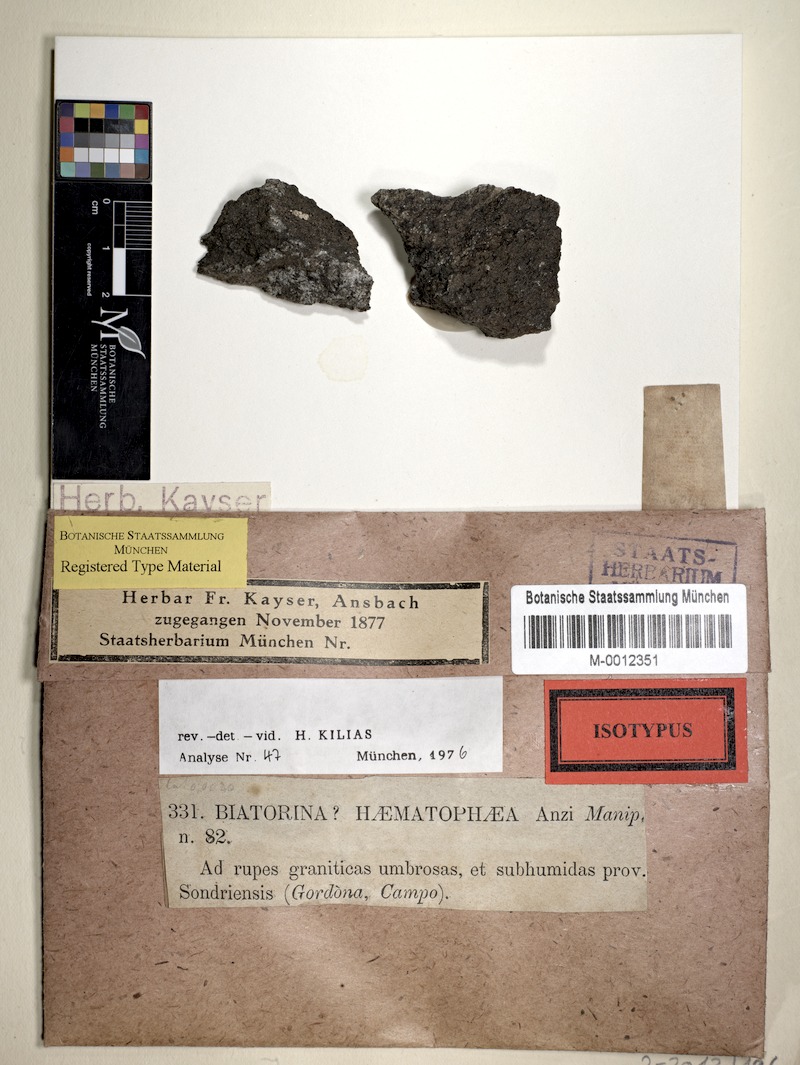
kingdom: Fungi
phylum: Ascomycota
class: Lecanoromycetes
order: Lecanorales
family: Catillariaceae
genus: Catillaria
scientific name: Catillaria haematophaea
